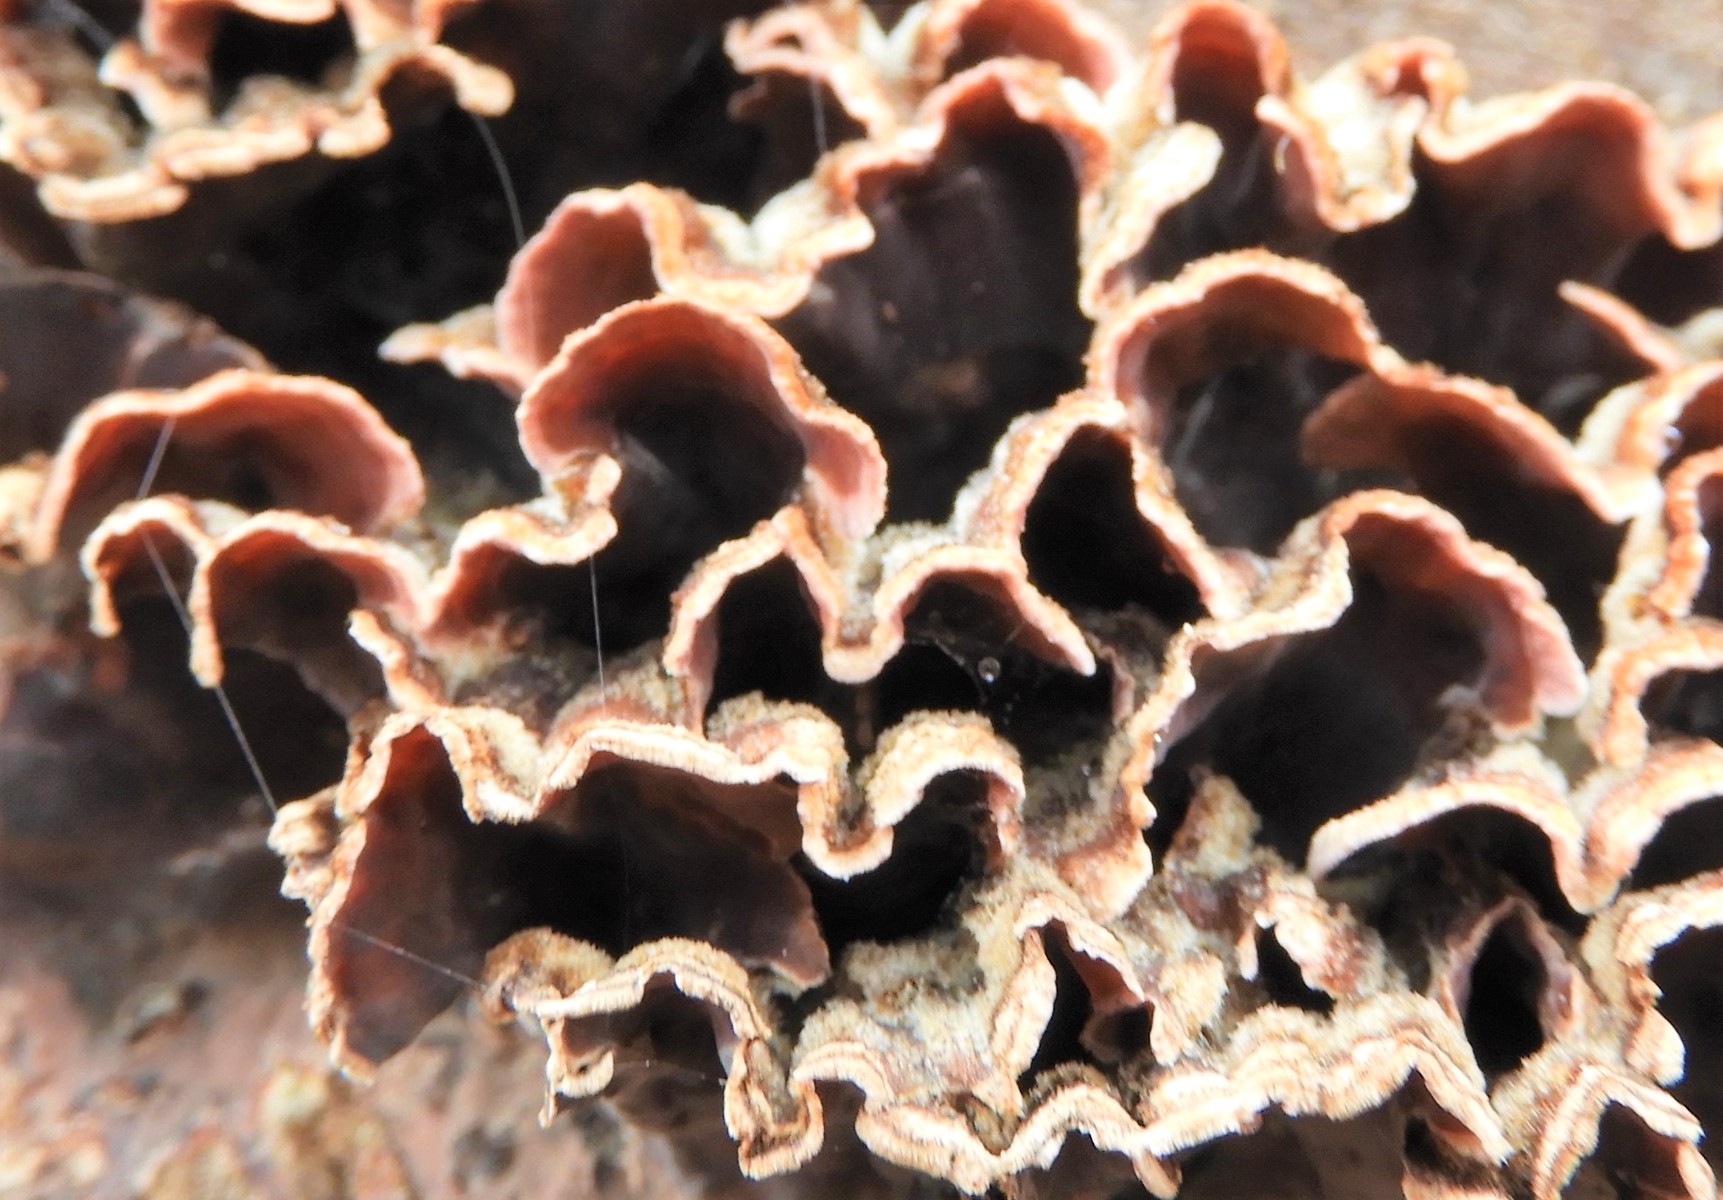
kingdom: Fungi
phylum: Basidiomycota
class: Agaricomycetes
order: Agaricales
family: Cyphellaceae
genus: Chondrostereum
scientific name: Chondrostereum purpureum
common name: purpurlædersvamp
